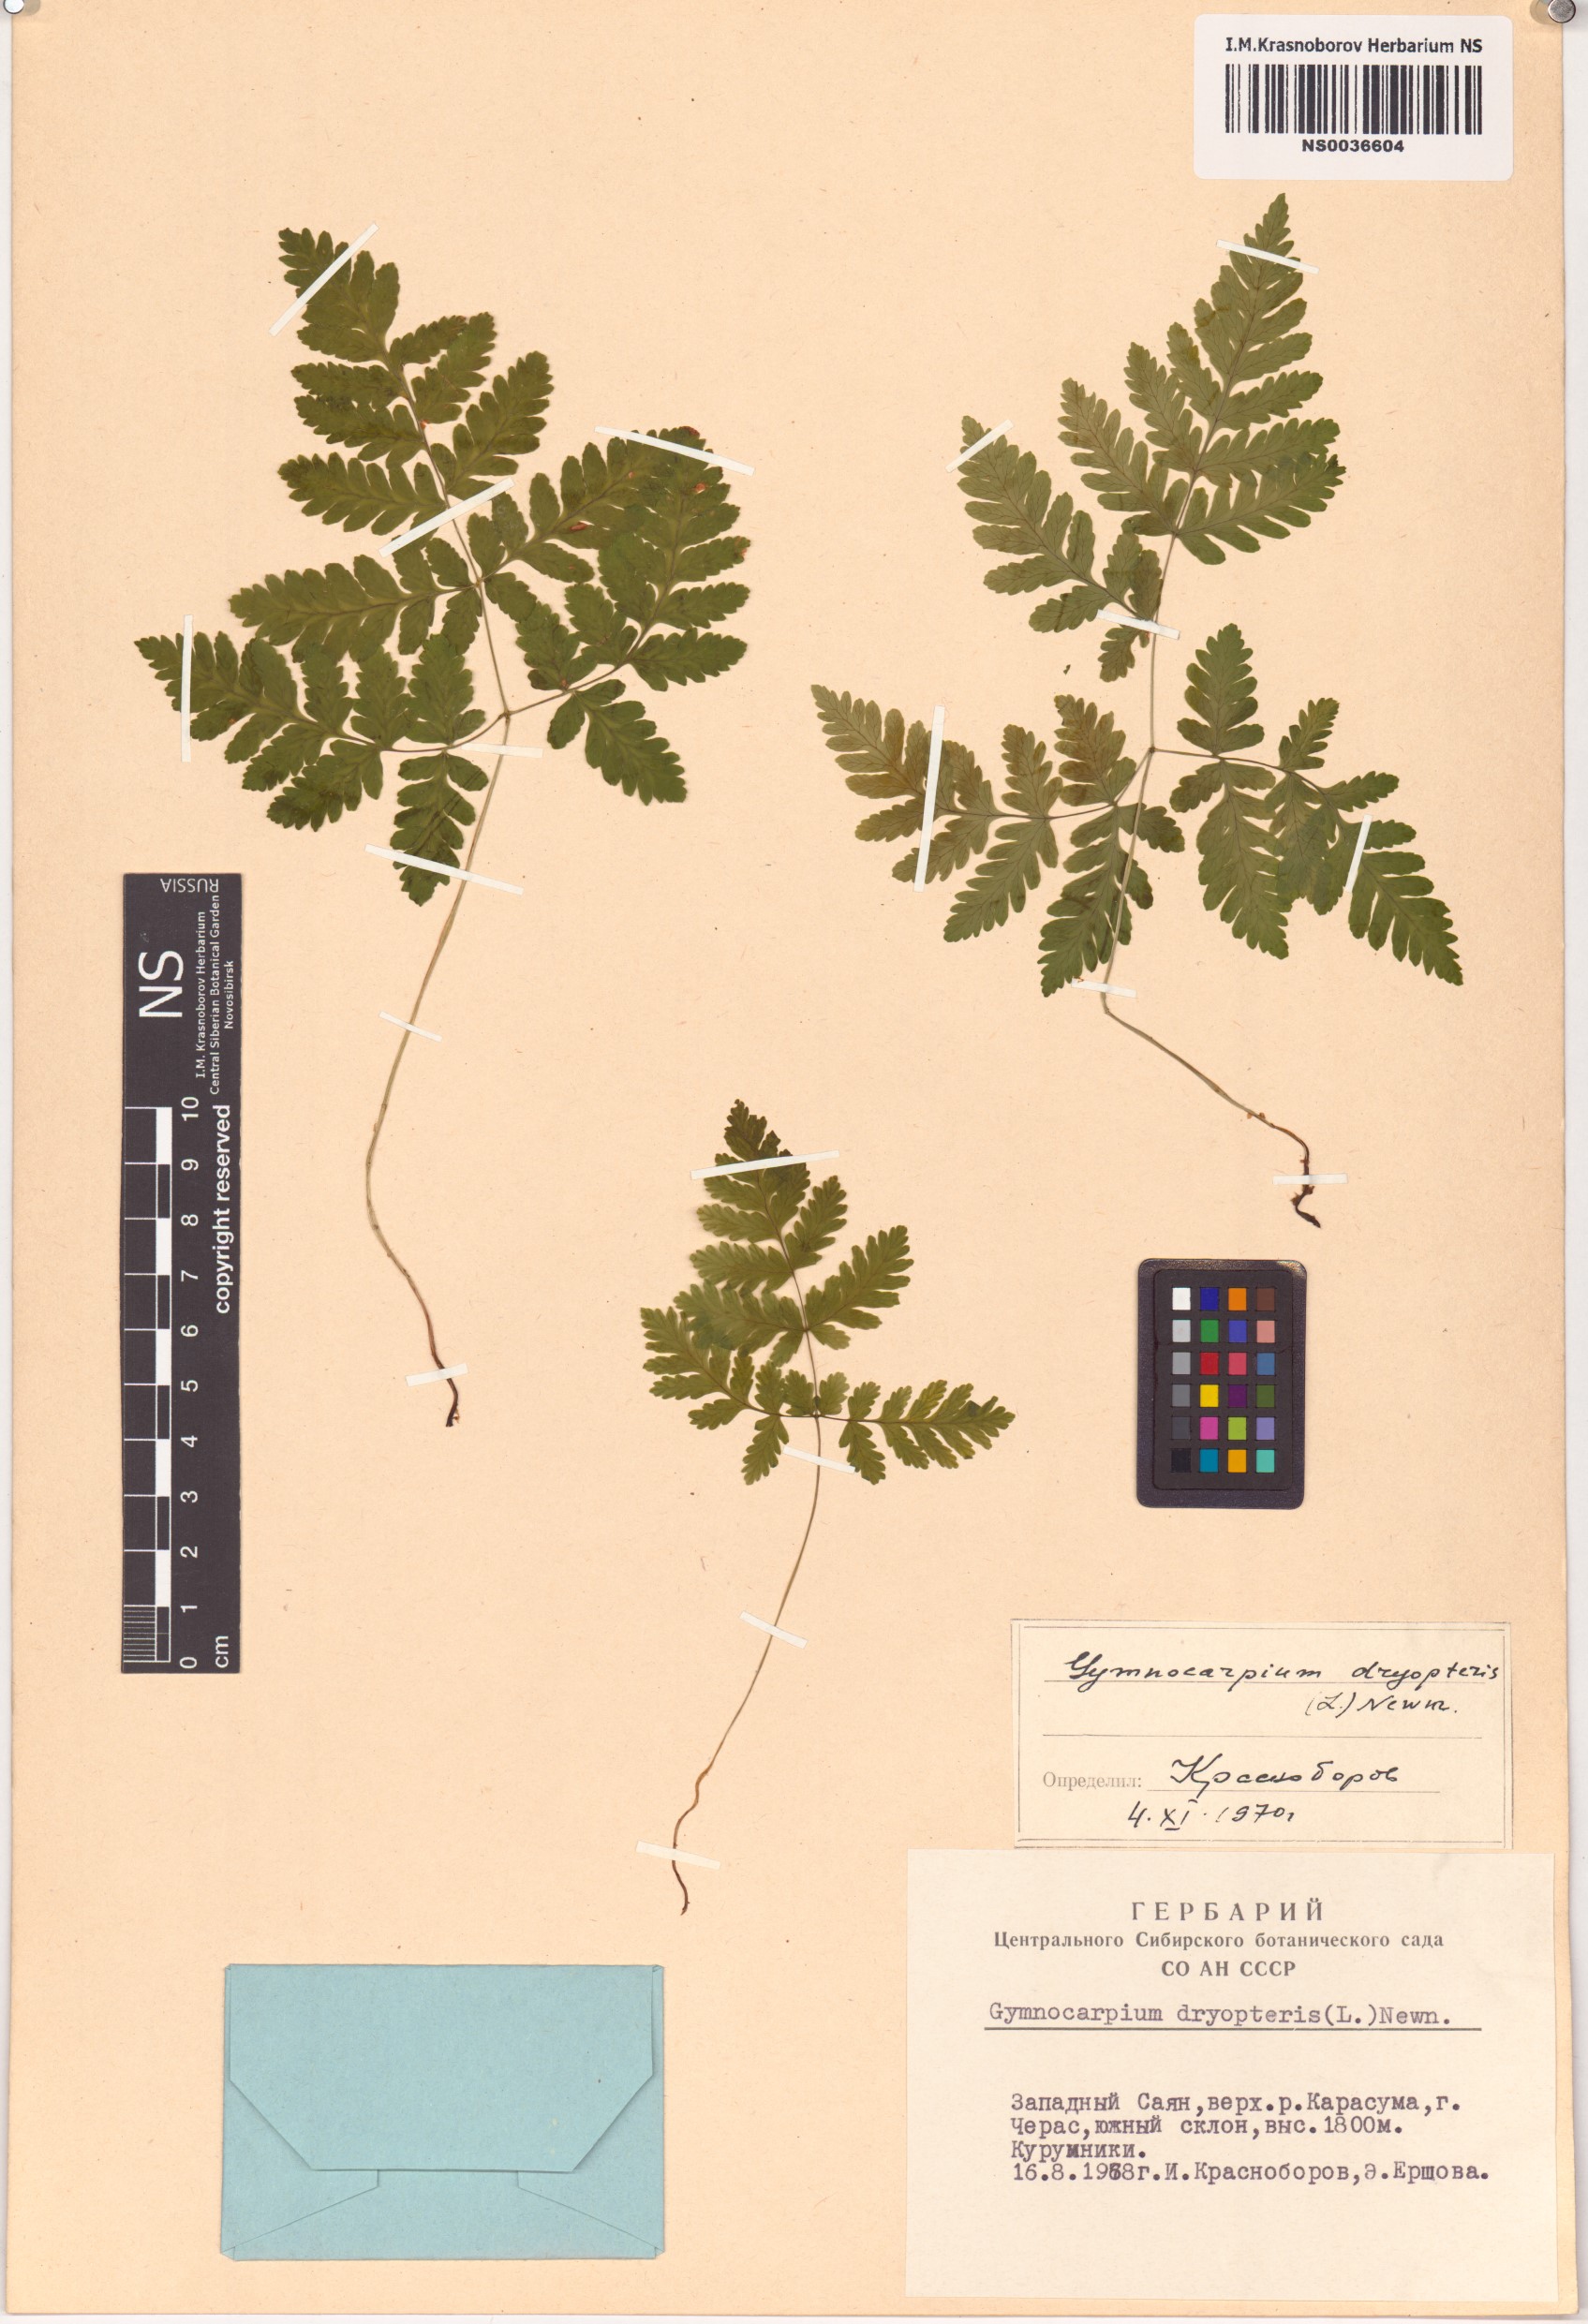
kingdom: Plantae
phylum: Tracheophyta
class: Polypodiopsida
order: Polypodiales
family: Cystopteridaceae
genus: Gymnocarpium
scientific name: Gymnocarpium dryopteris
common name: Oak fern
